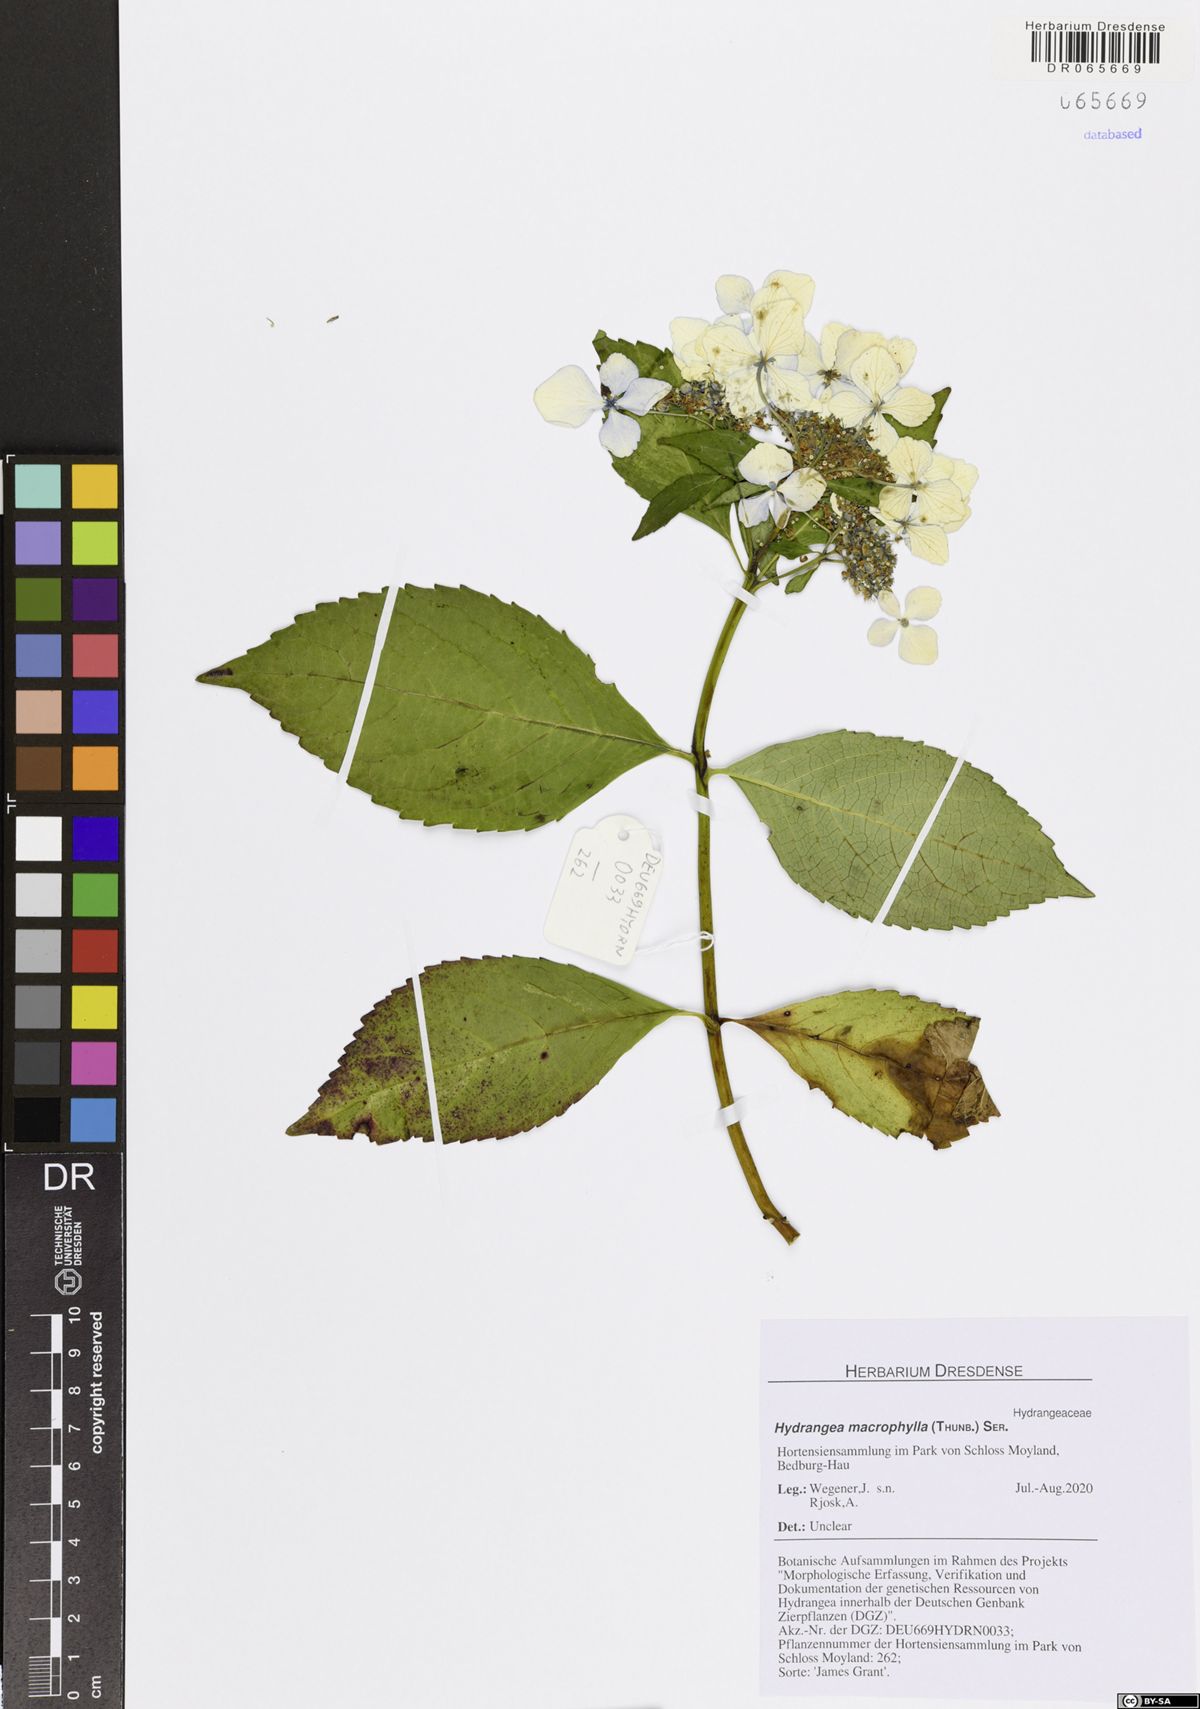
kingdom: Plantae
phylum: Tracheophyta
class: Magnoliopsida
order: Cornales
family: Hydrangeaceae
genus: Hydrangea
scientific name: Hydrangea macrophylla
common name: Hydrangea
